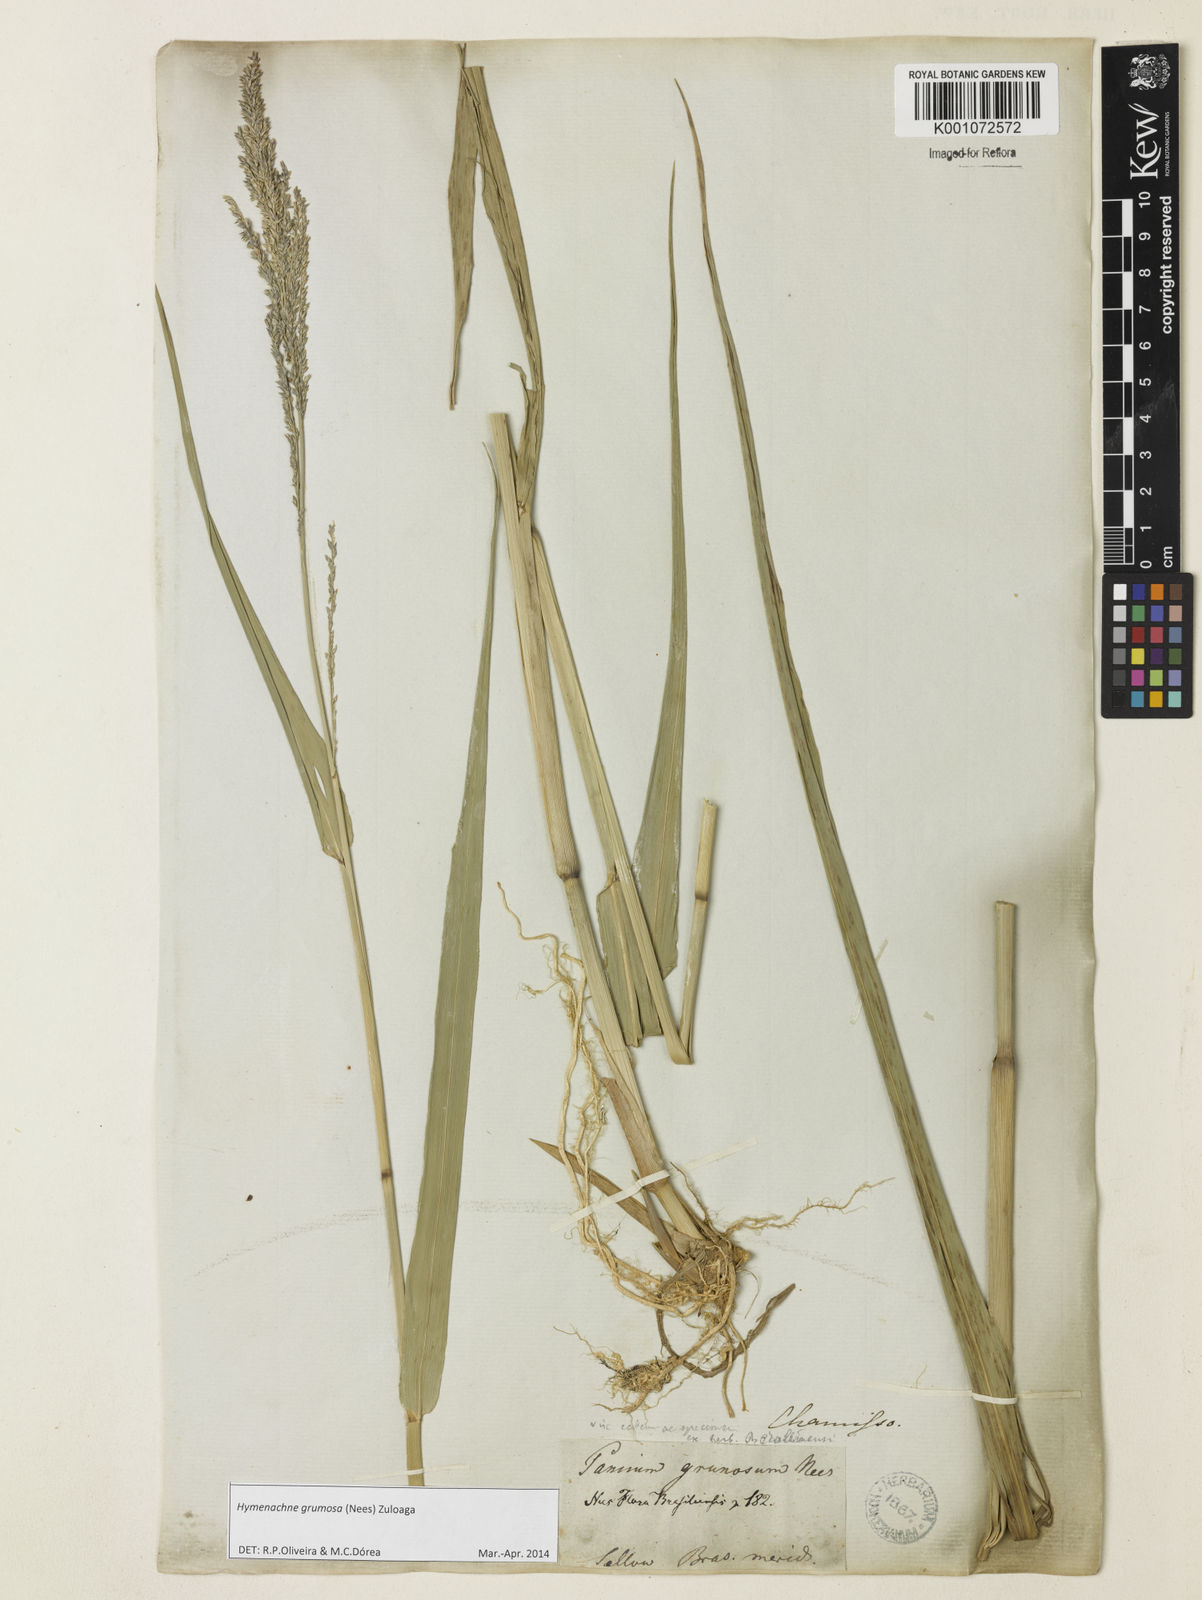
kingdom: Plantae
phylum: Tracheophyta
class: Liliopsida
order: Poales
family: Poaceae
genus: Hymenachne
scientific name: Hymenachne grumosa
